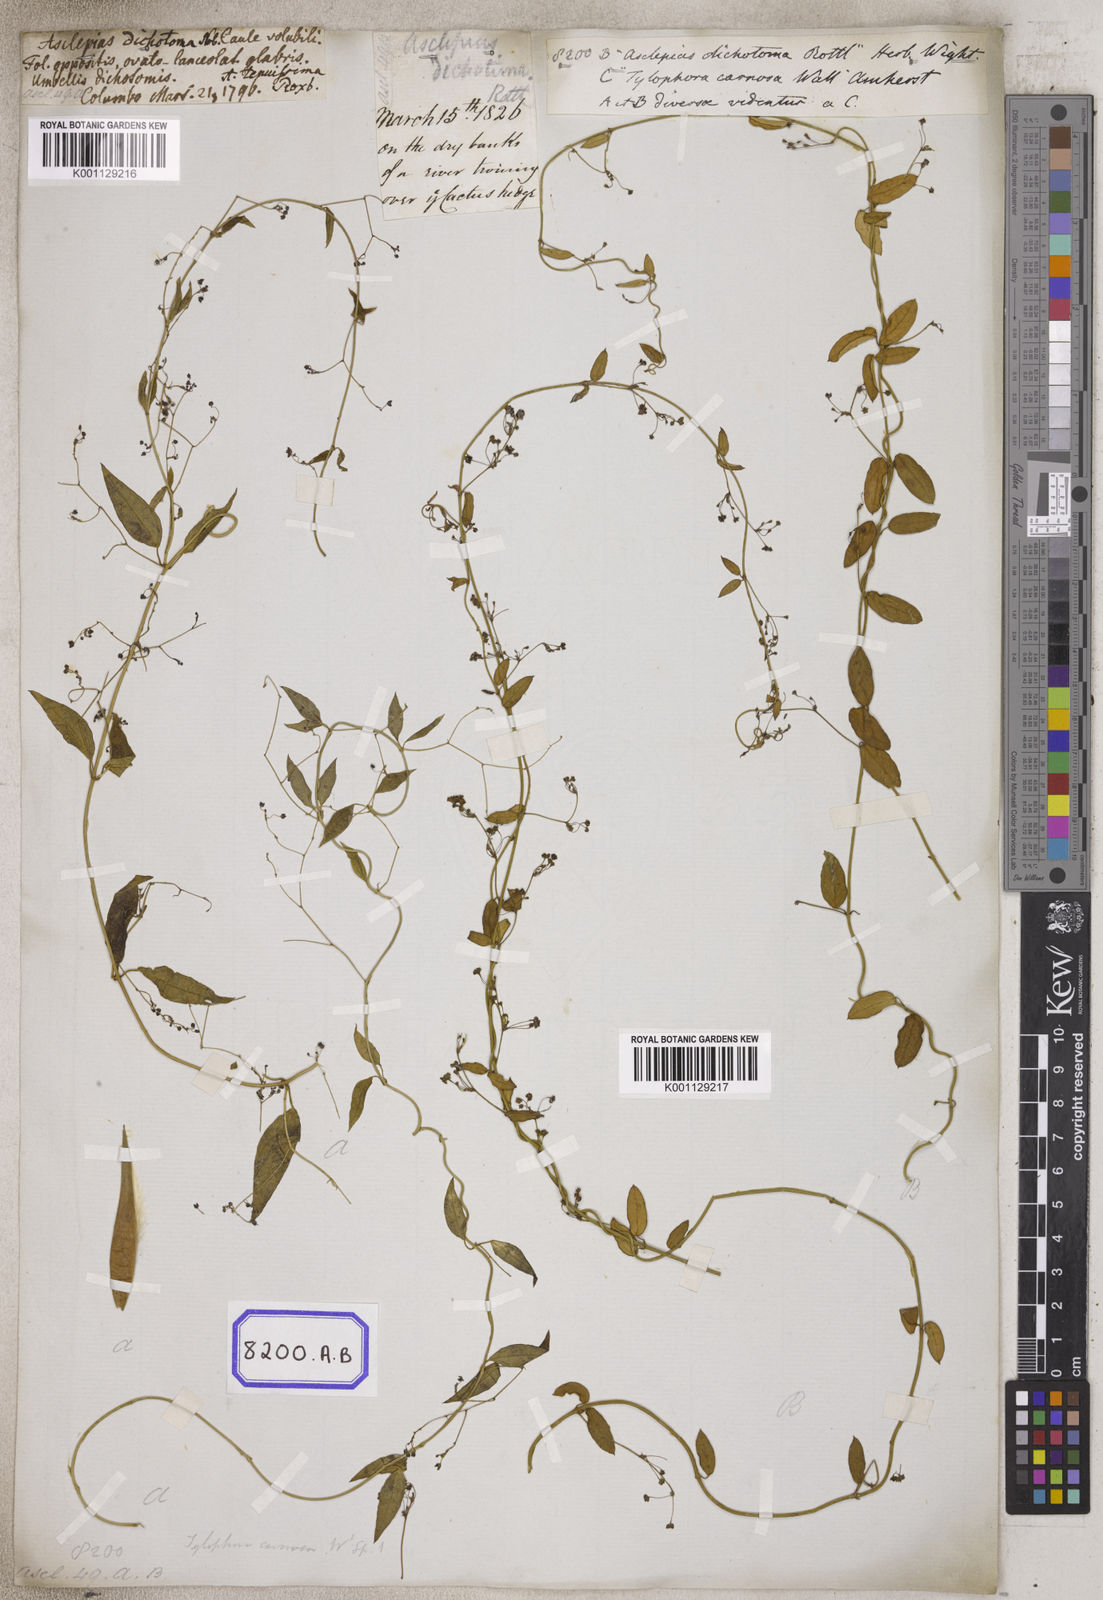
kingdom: Plantae
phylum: Tracheophyta
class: Magnoliopsida
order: Gentianales
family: Apocynaceae
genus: Vincetoxicum
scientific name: Vincetoxicum flexuosum
